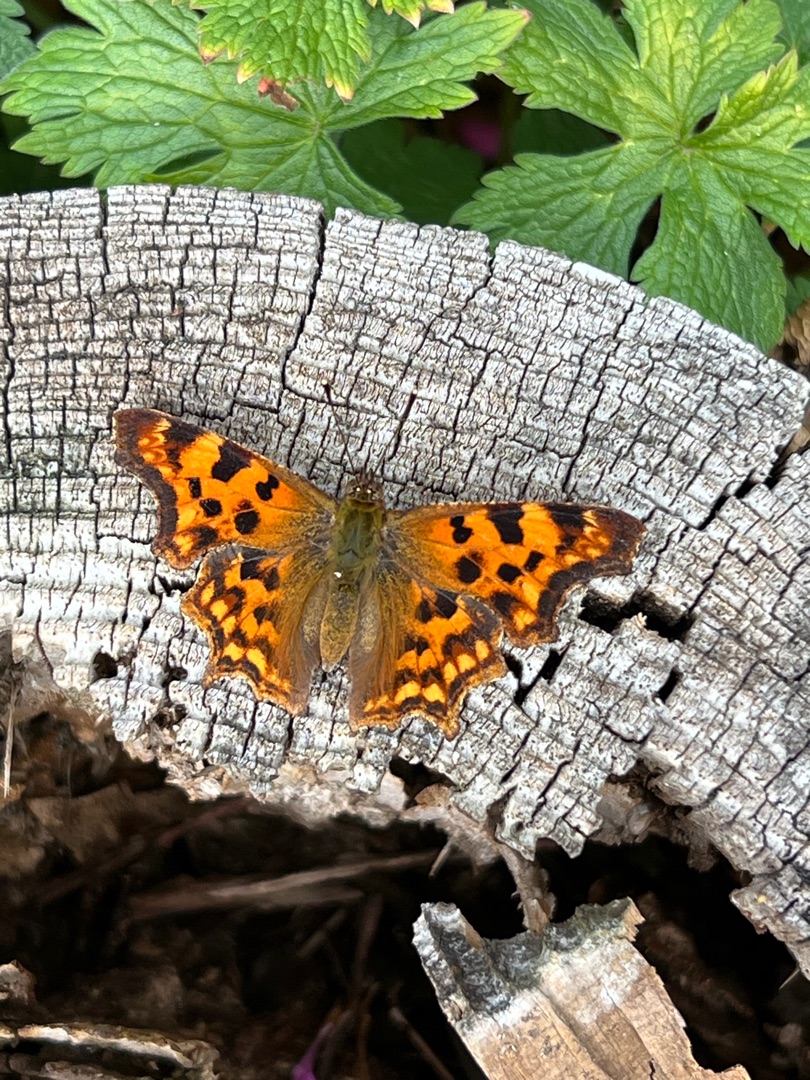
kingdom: Animalia
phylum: Arthropoda
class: Insecta
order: Lepidoptera
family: Nymphalidae
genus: Polygonia
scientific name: Polygonia c-album
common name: Det hvide C
